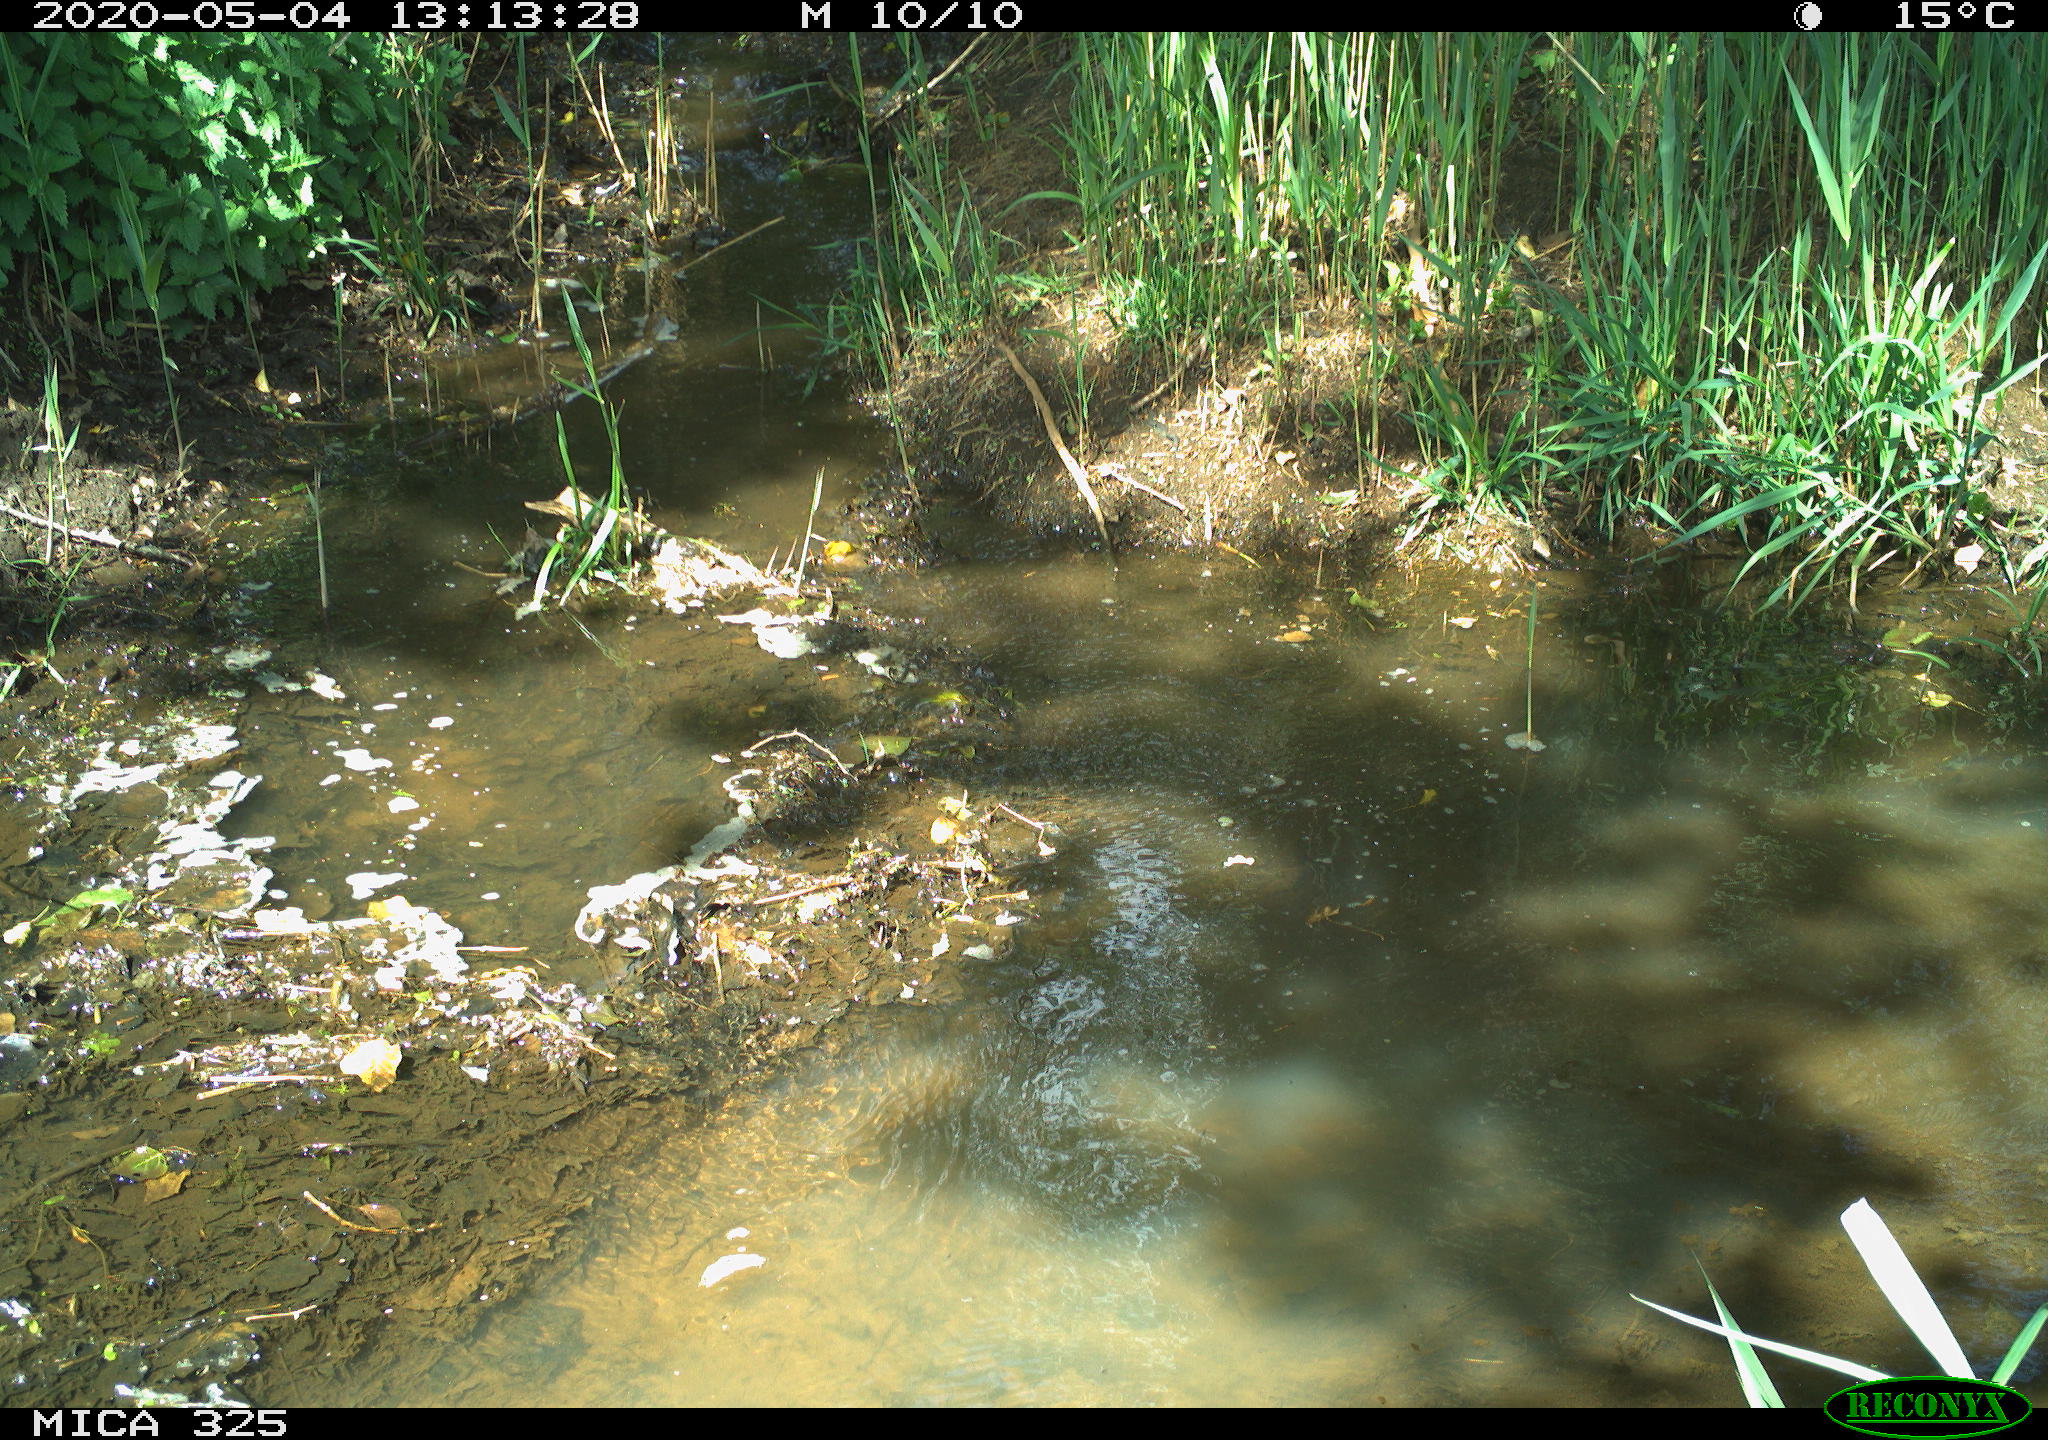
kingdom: Animalia
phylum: Chordata
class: Mammalia
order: Rodentia
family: Myocastoridae
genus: Myocastor
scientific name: Myocastor coypus
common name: Coypu
